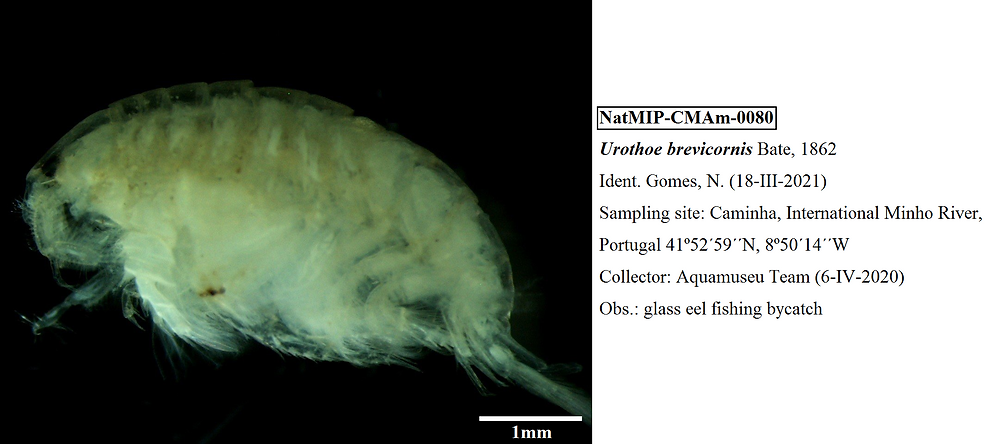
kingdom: Animalia
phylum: Arthropoda
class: Malacostraca
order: Amphipoda
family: Urothoidae
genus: Urothoe
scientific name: Urothoe brevicornis
